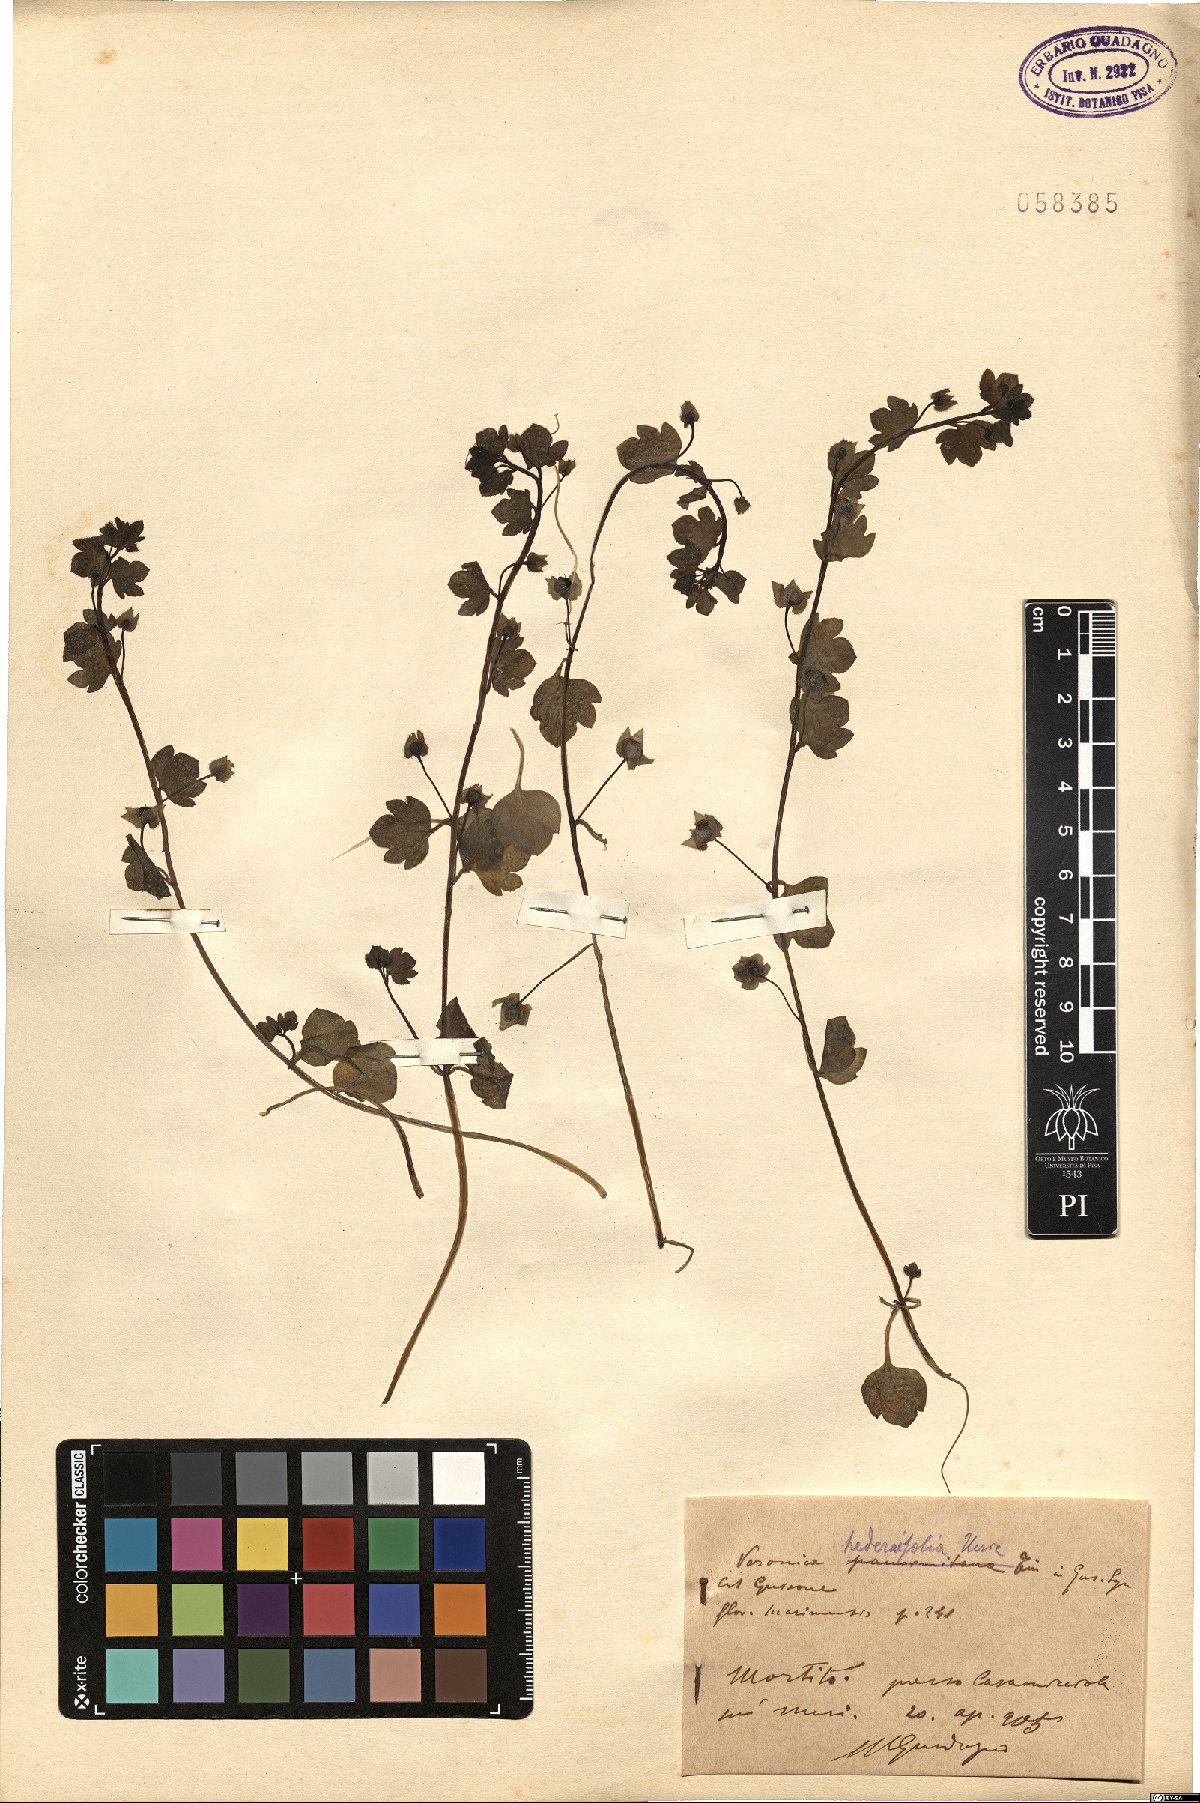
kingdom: Plantae
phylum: Tracheophyta
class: Magnoliopsida
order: Lamiales
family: Plantaginaceae
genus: Veronica
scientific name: Veronica hederifolia
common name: Ivy-leaved speedwell
